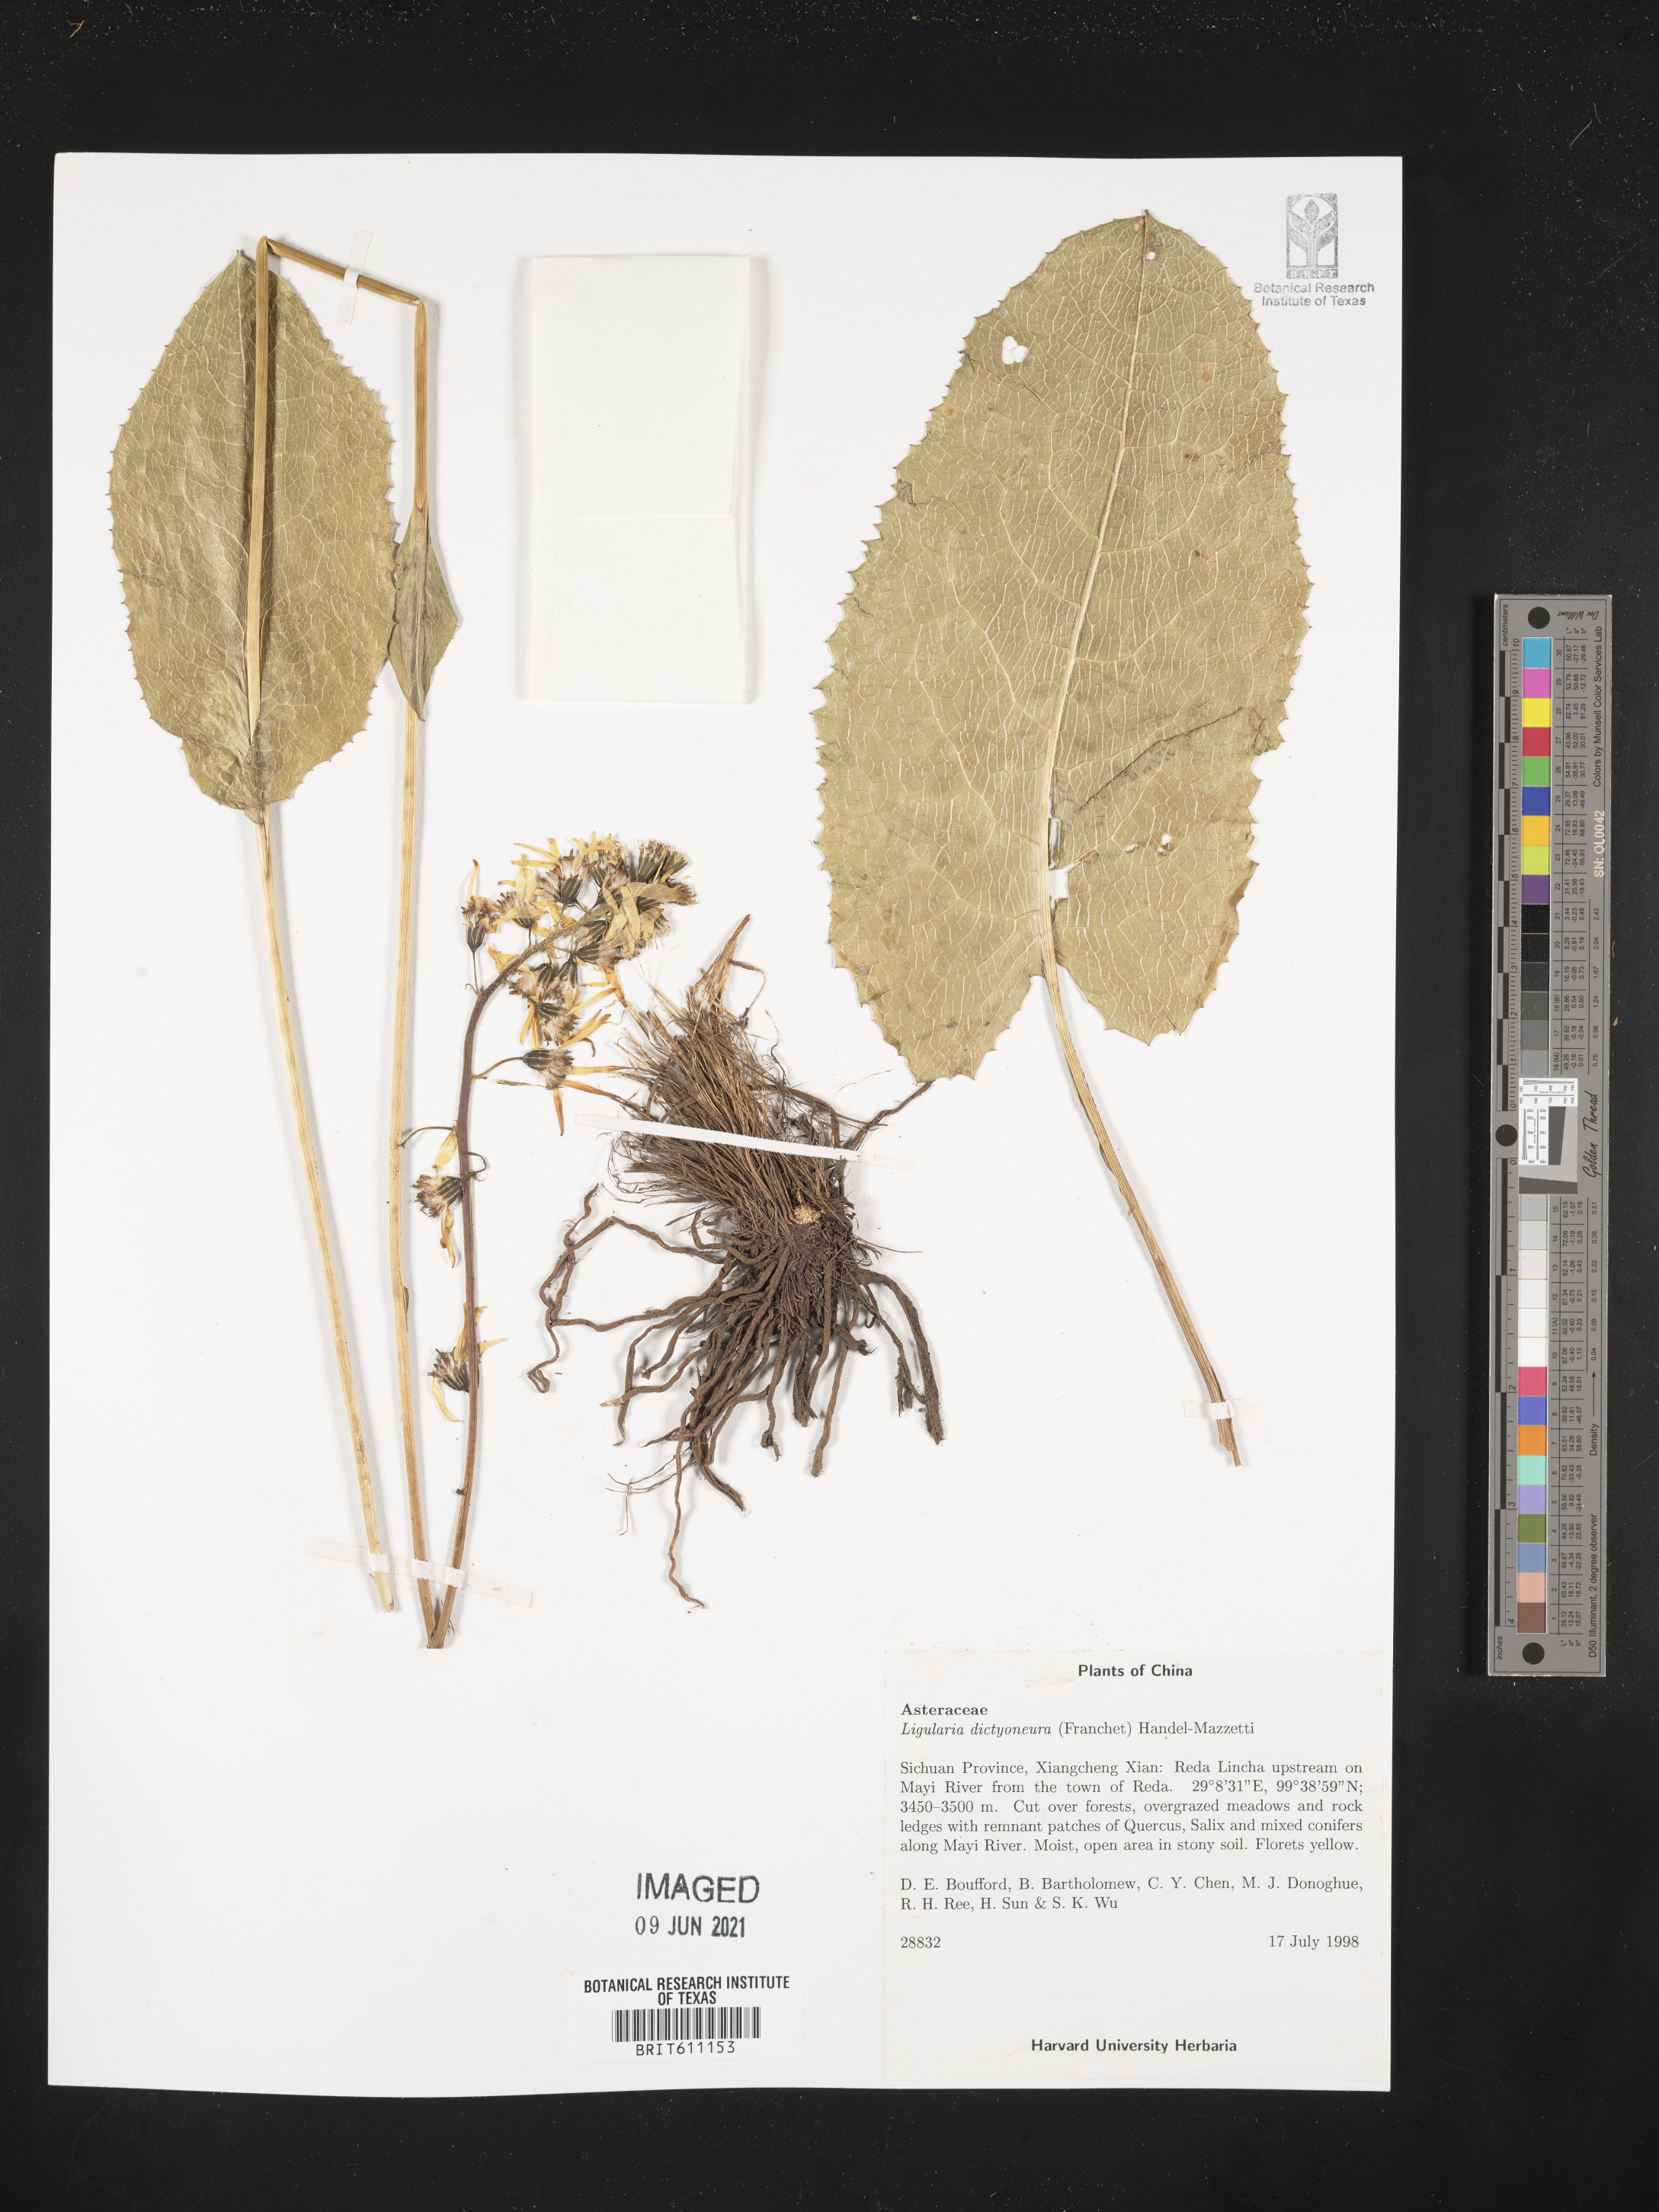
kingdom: Plantae
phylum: Tracheophyta
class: Magnoliopsida
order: Asterales
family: Asteraceae
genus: Ligularia
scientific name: Ligularia dictyoneura
